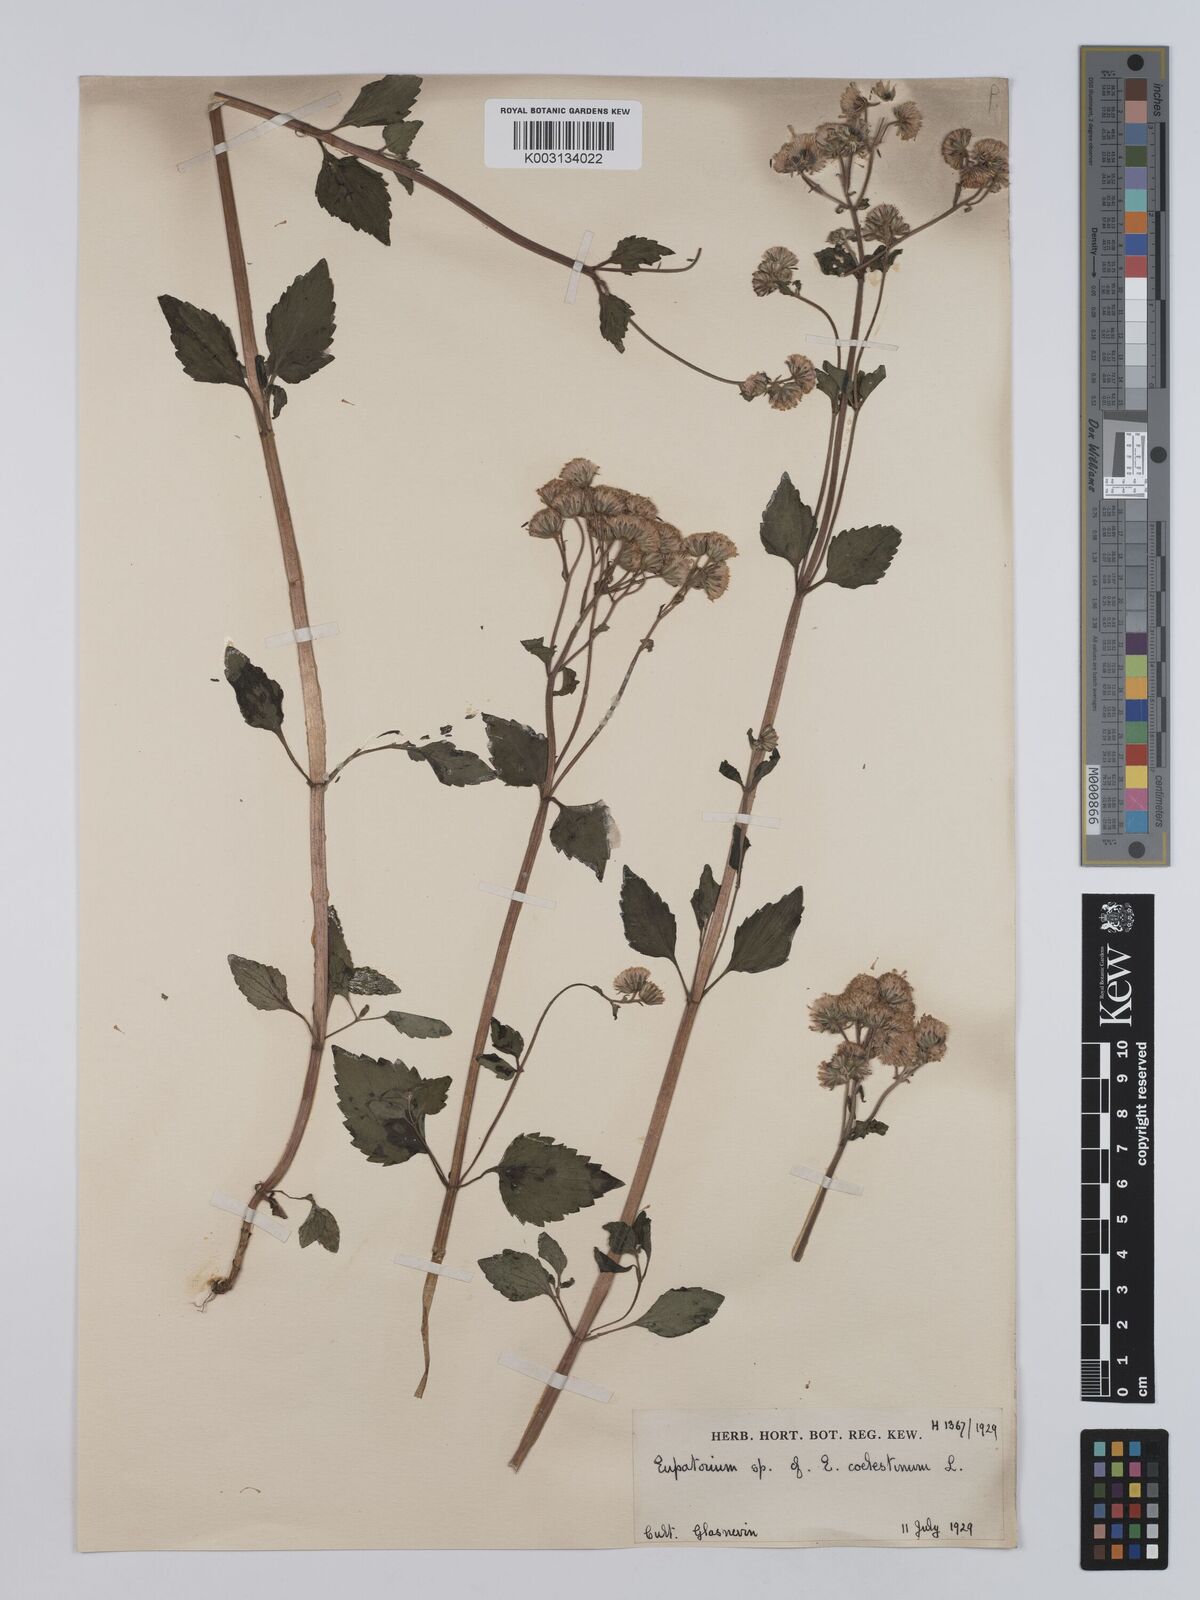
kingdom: Plantae
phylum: Tracheophyta
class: Magnoliopsida
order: Asterales
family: Asteraceae
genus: Conoclinium
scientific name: Conoclinium
